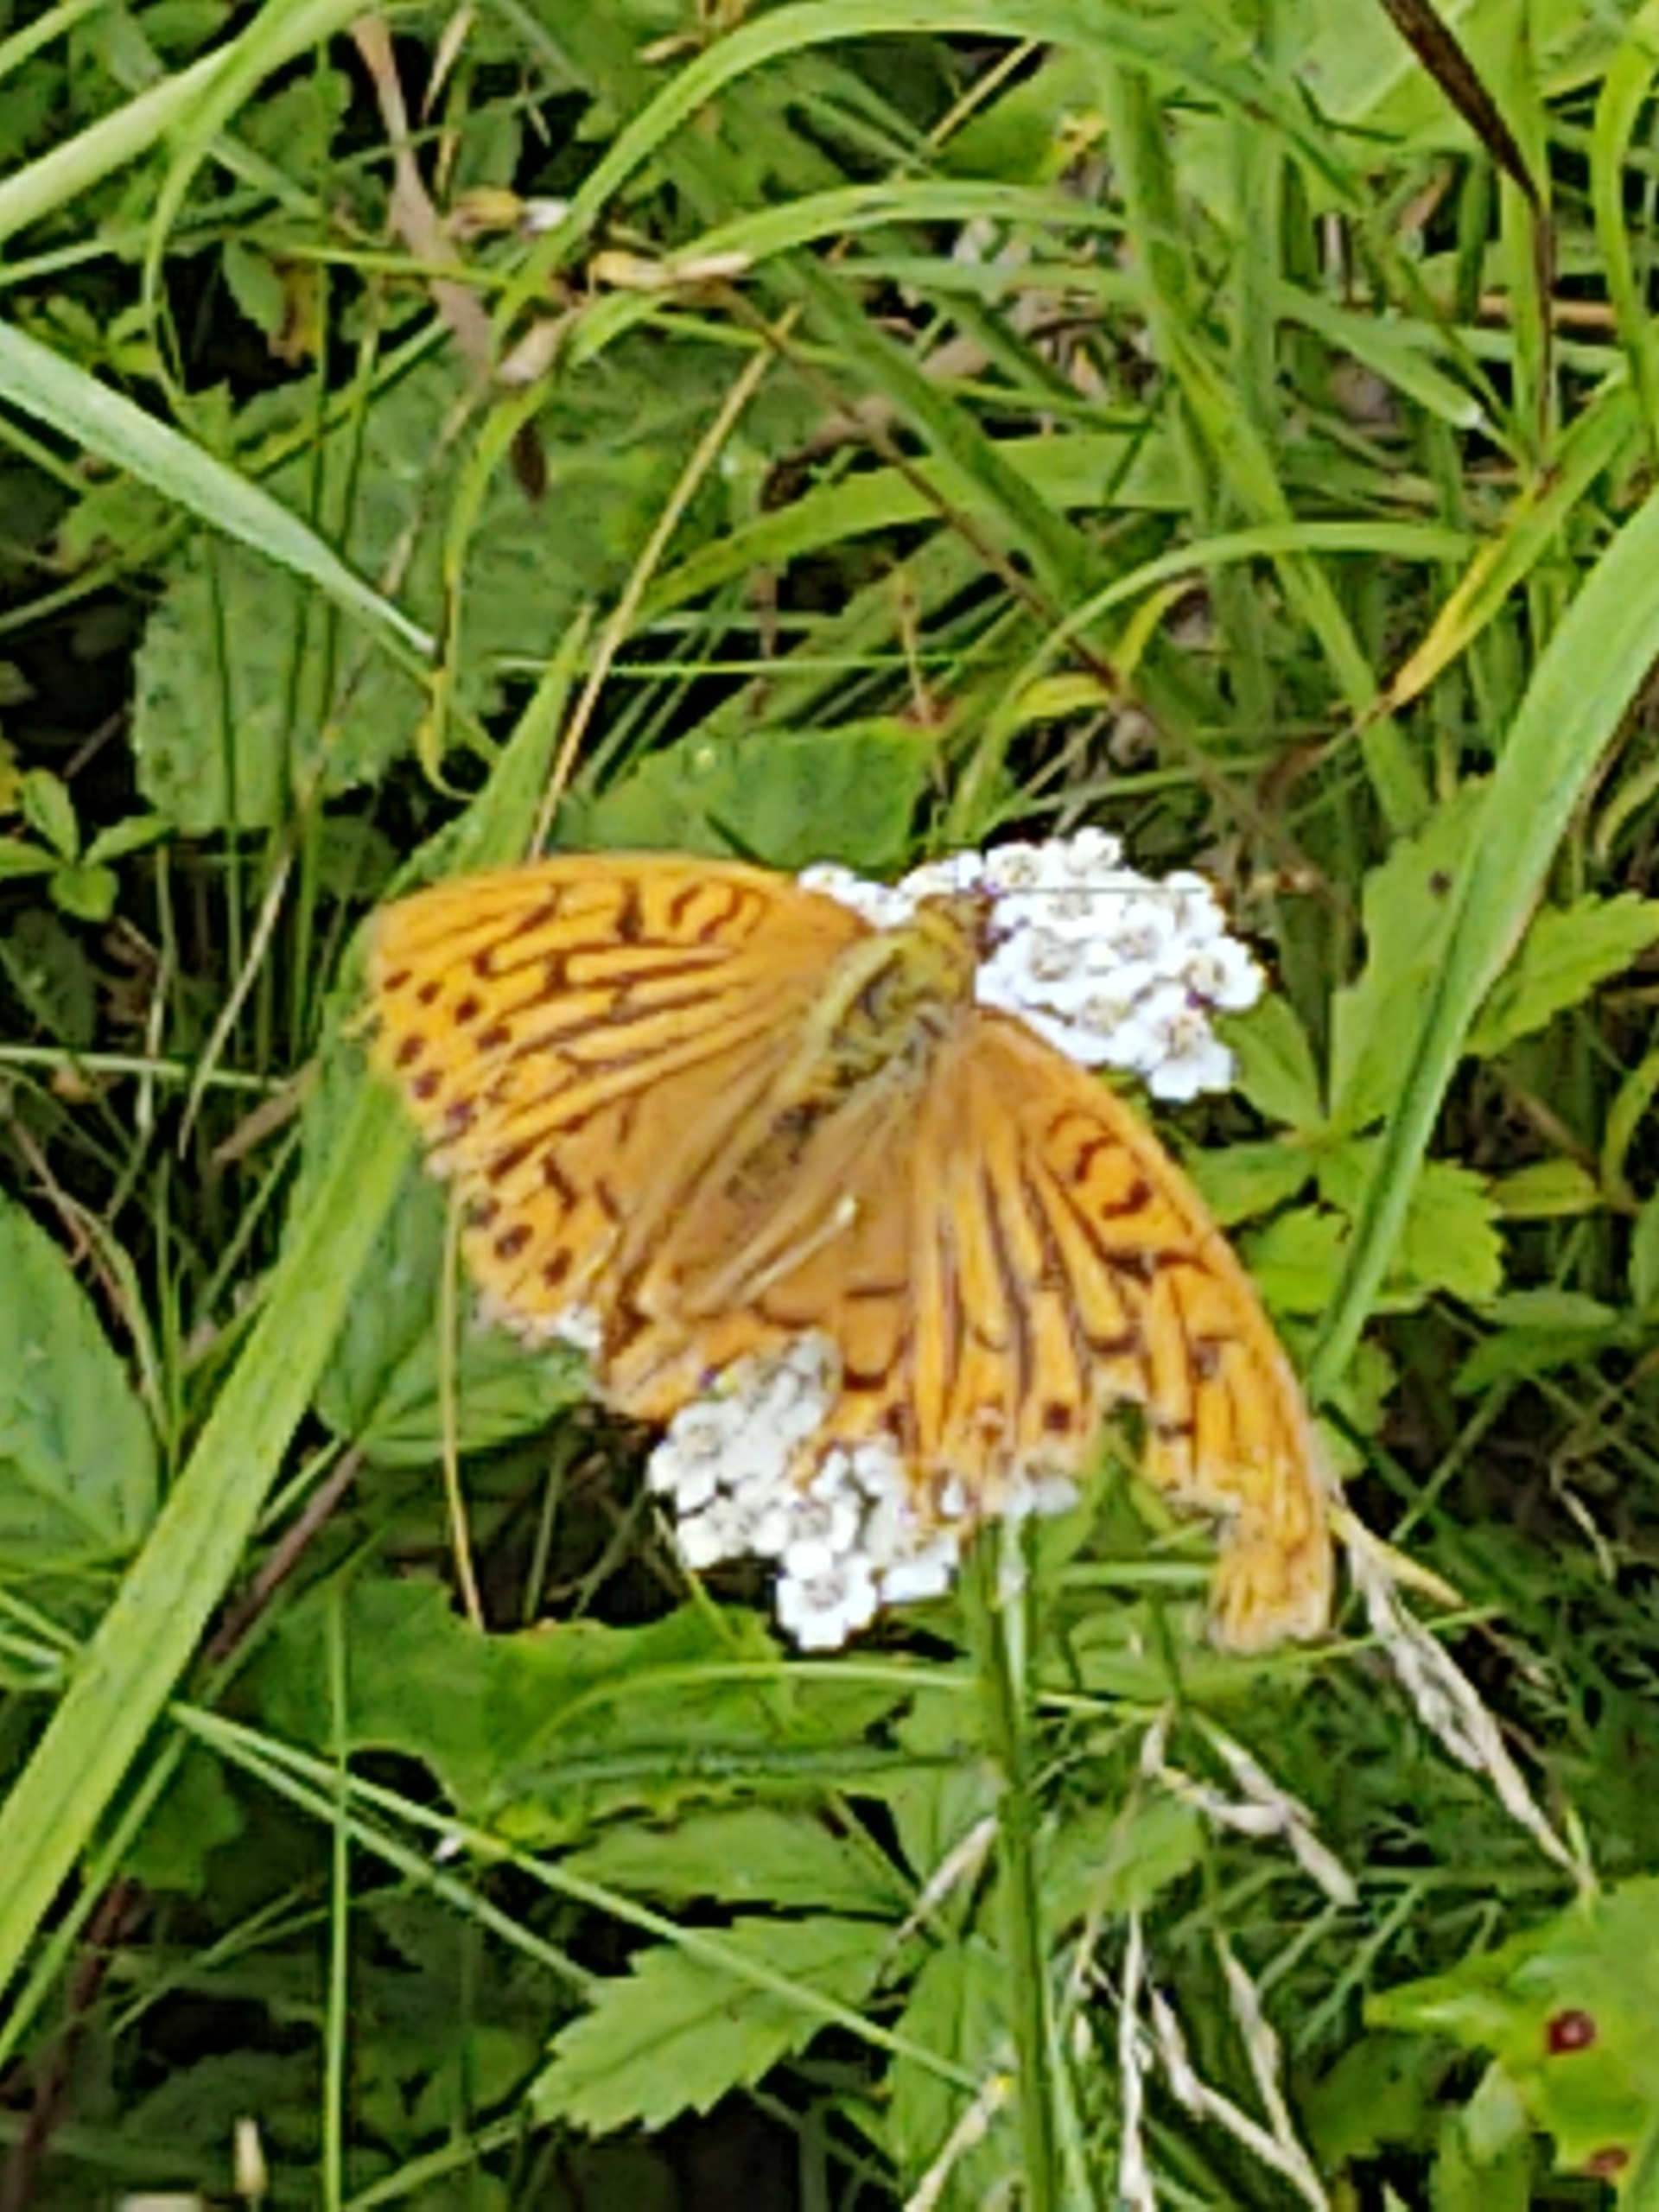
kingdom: Animalia
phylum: Arthropoda
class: Insecta
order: Lepidoptera
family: Nymphalidae
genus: Argynnis
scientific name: Argynnis paphia
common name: Kejserkåbe
